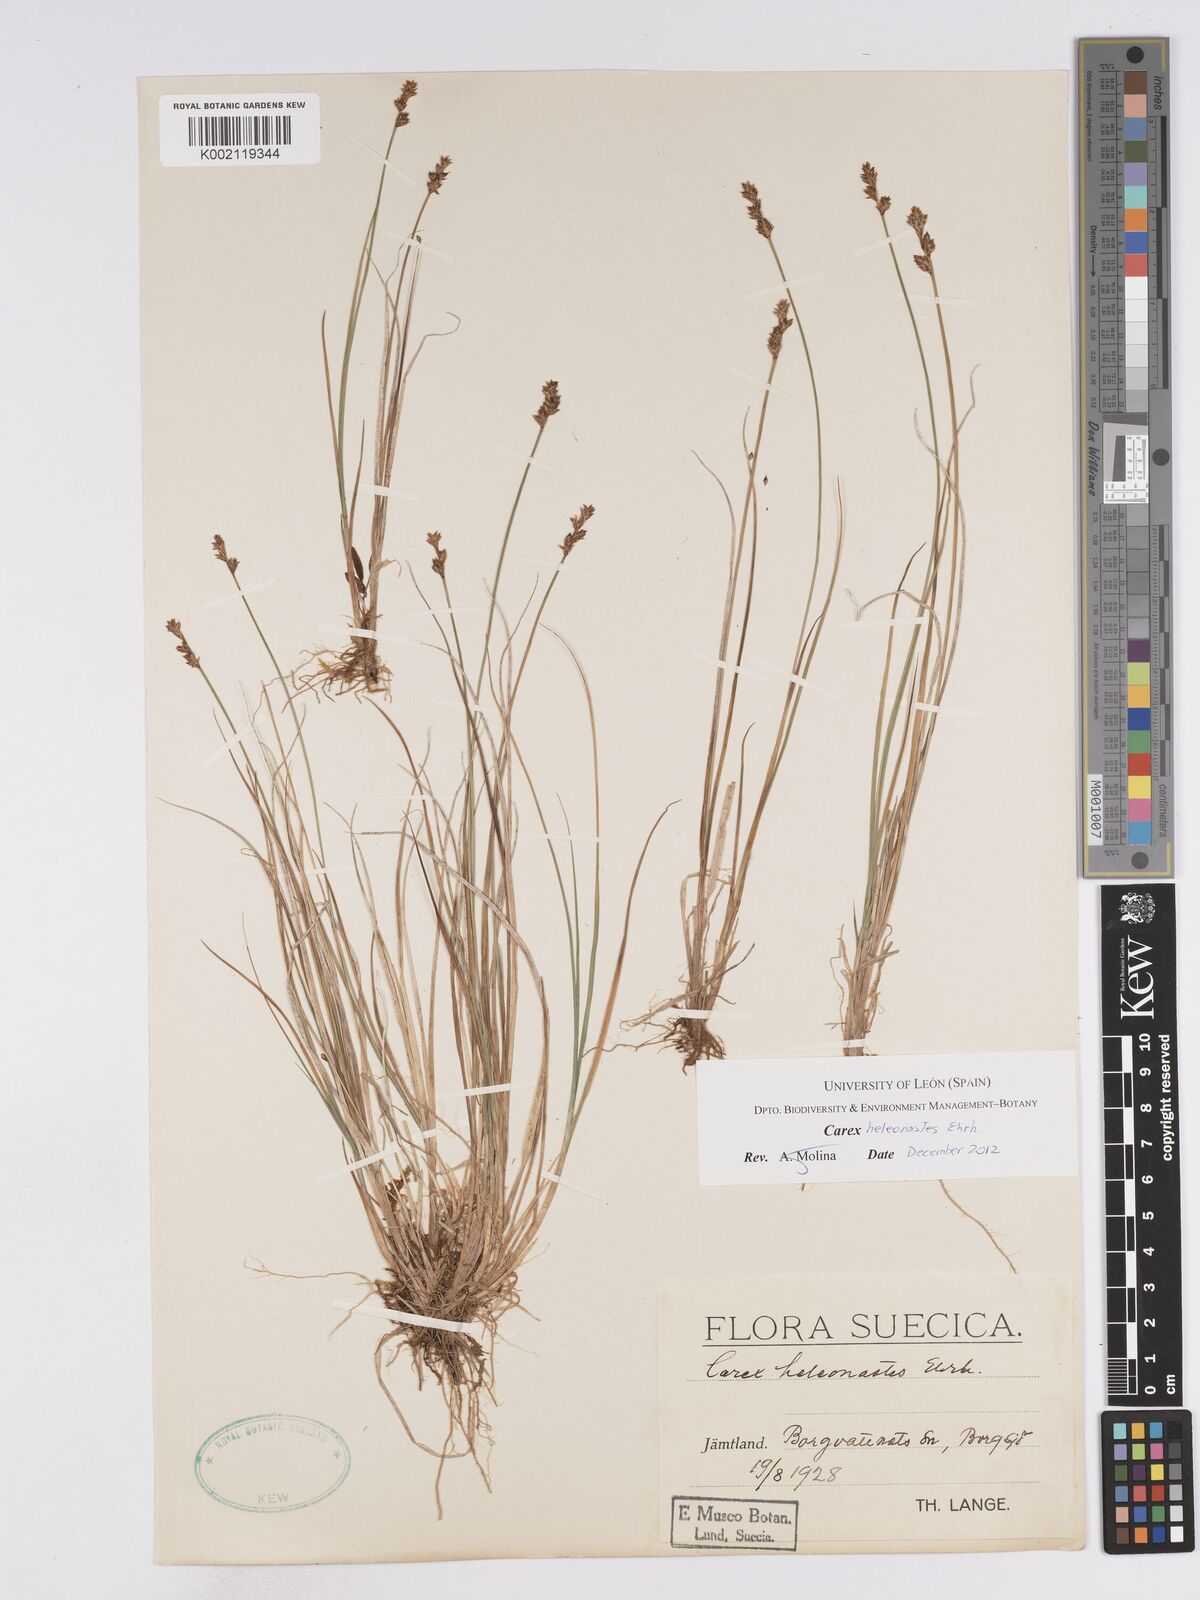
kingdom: Plantae
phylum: Tracheophyta
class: Liliopsida
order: Poales
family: Cyperaceae
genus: Carex
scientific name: Carex heleonastes
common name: Hudson bay sedge
